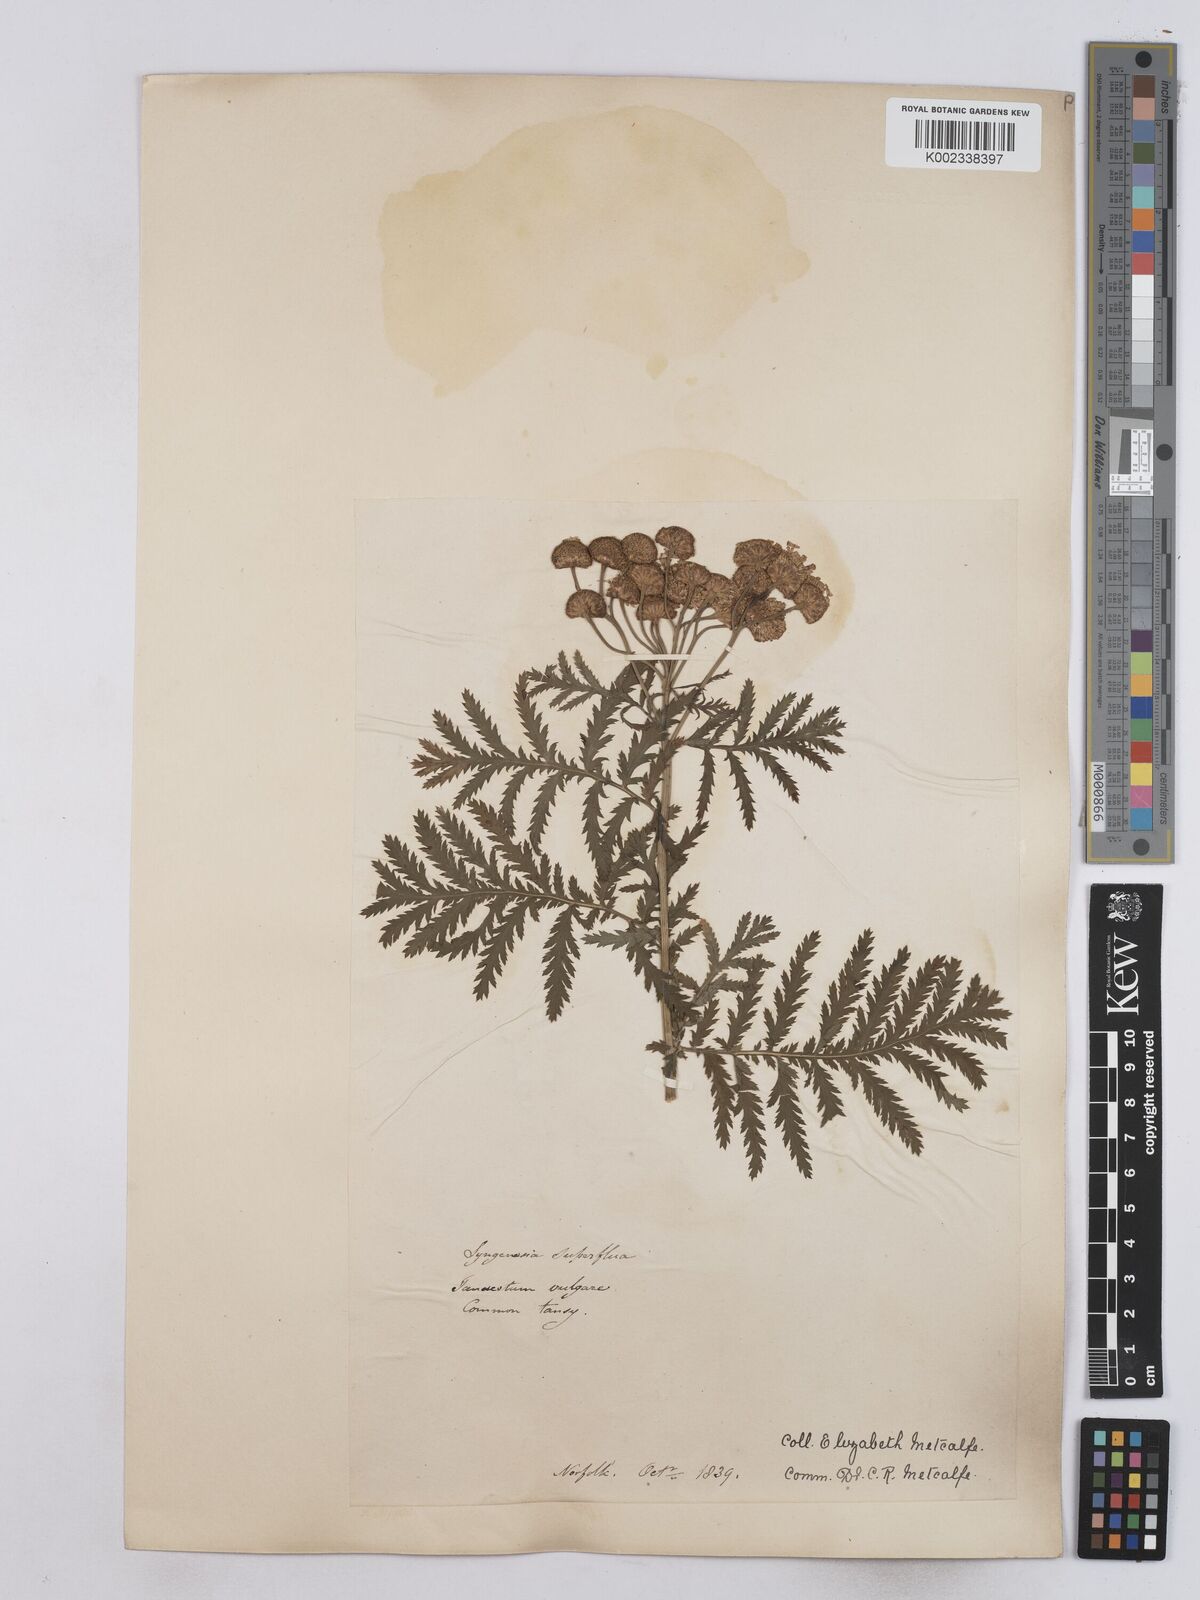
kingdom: Plantae
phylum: Tracheophyta
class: Magnoliopsida
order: Asterales
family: Asteraceae
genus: Tanacetum
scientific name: Tanacetum vulgare
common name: Common tansy
